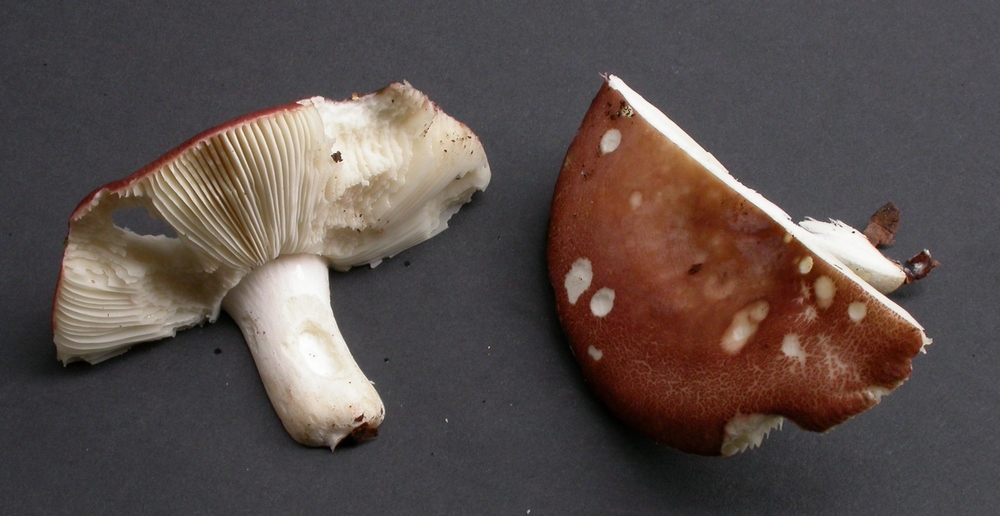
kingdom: Fungi
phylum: Basidiomycota
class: Agaricomycetes
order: Russulales
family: Russulaceae
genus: Russula
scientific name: Russula aurora
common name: rosa skørhat
